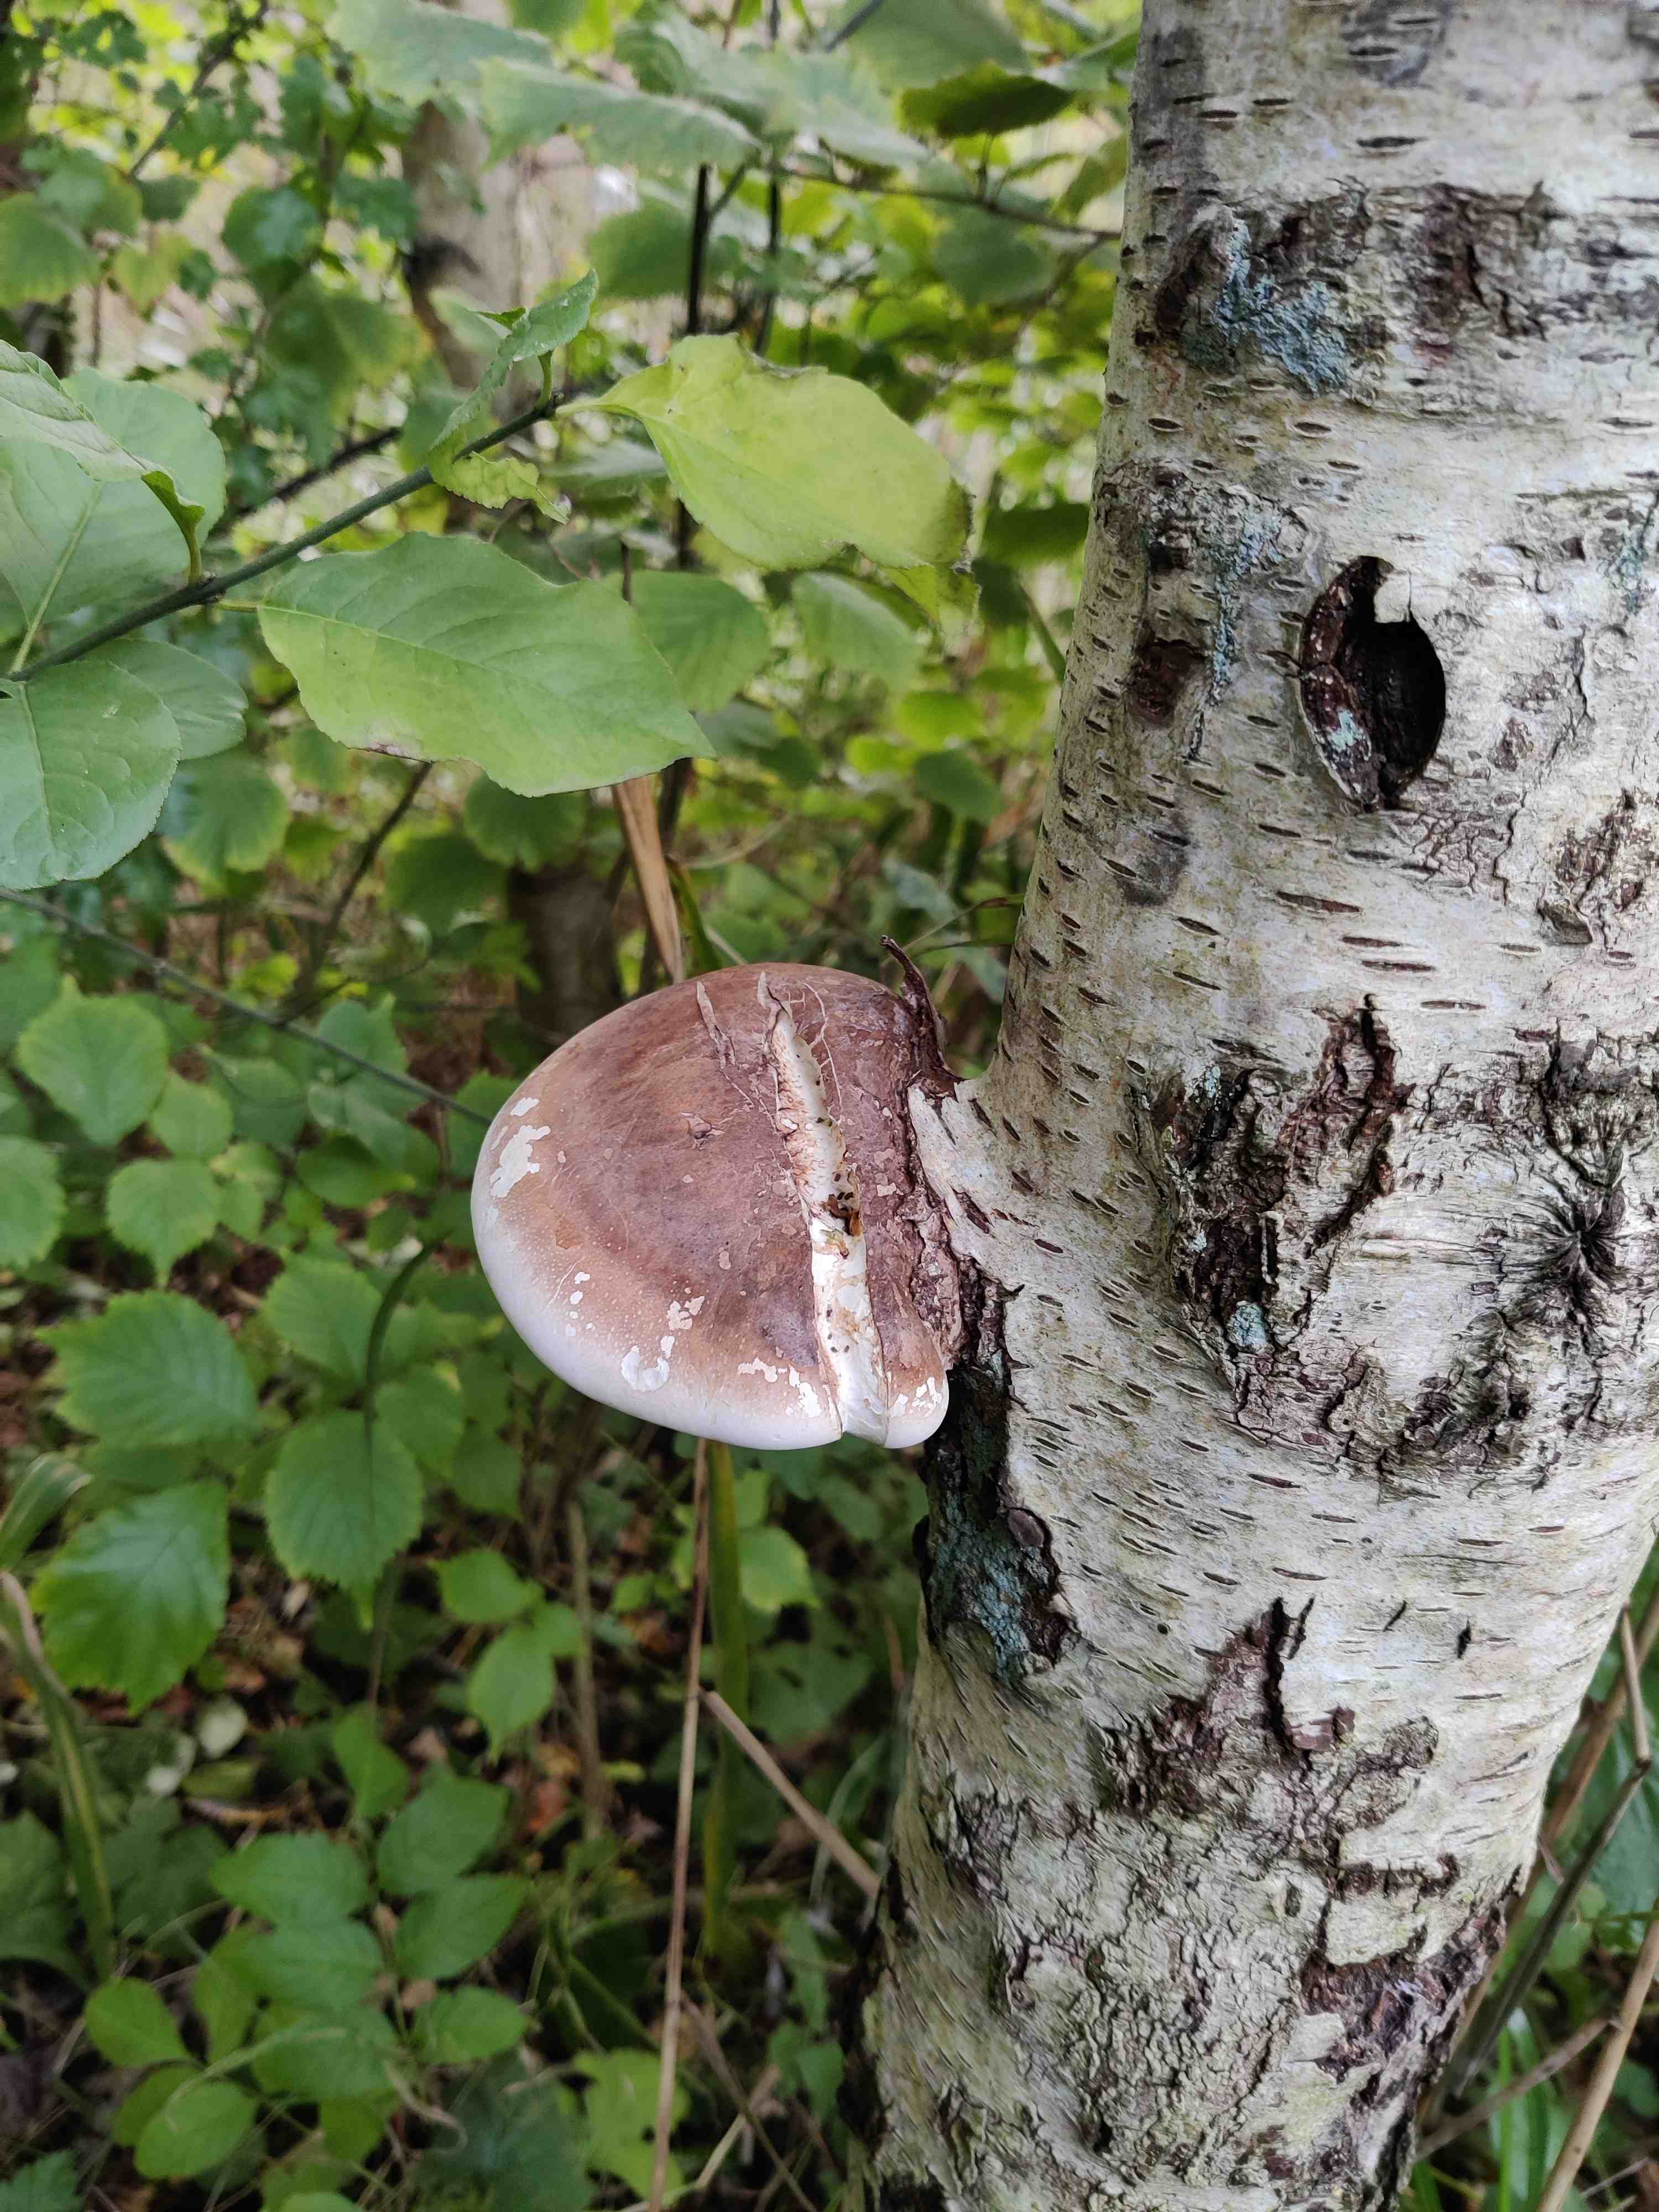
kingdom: Fungi
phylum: Basidiomycota
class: Agaricomycetes
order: Polyporales
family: Fomitopsidaceae
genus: Fomitopsis
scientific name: Fomitopsis betulina
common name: birkeporesvamp
